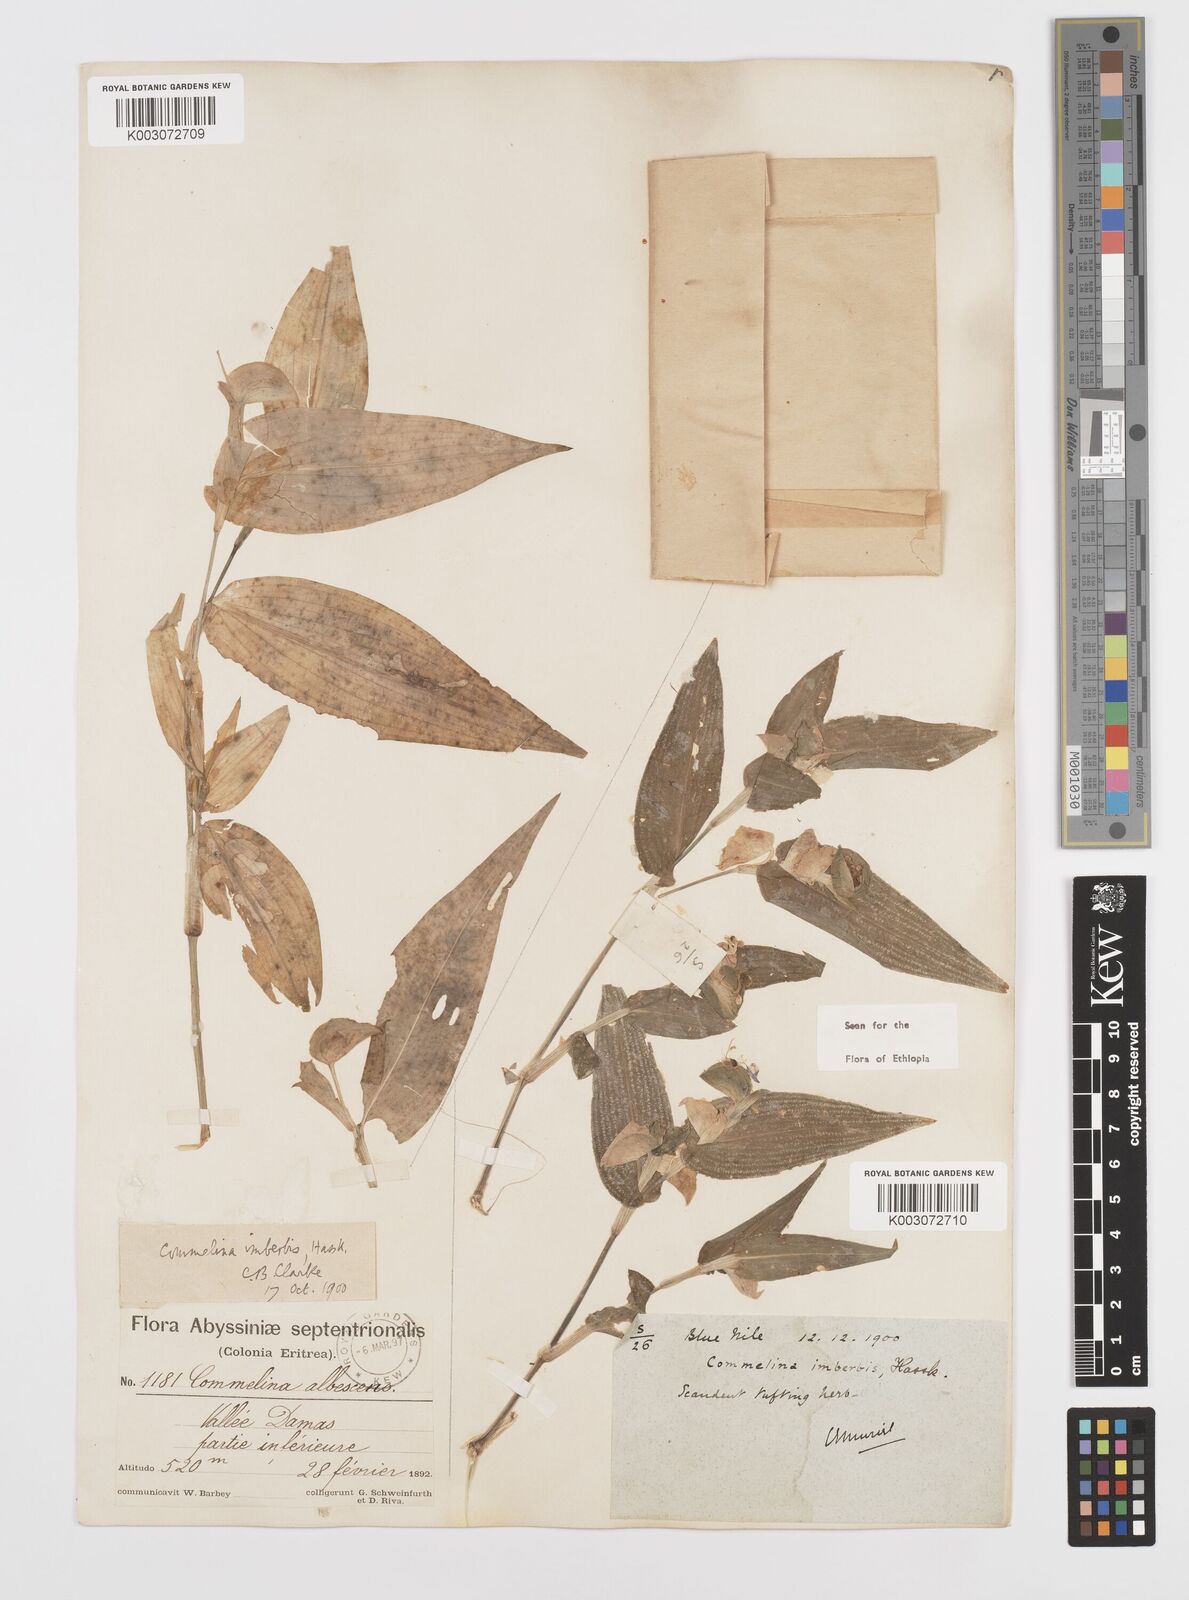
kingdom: Plantae
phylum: Tracheophyta
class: Liliopsida
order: Commelinales
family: Commelinaceae
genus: Commelina
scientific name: Commelina imberbis
